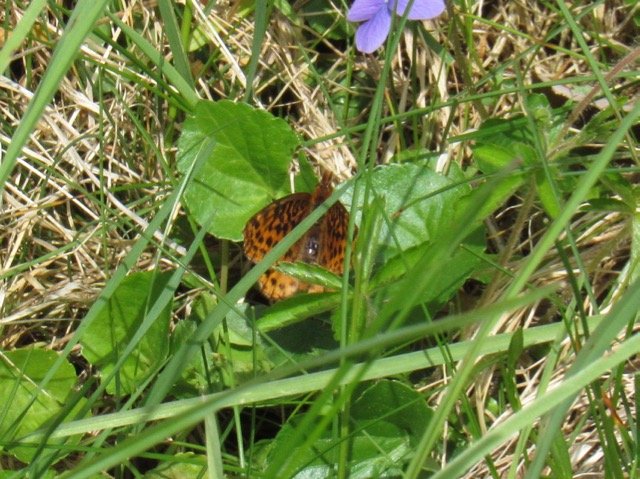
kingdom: Animalia
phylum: Arthropoda
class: Insecta
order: Lepidoptera
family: Nymphalidae
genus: Clossiana
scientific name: Clossiana toddi
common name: Meadow Fritillary
